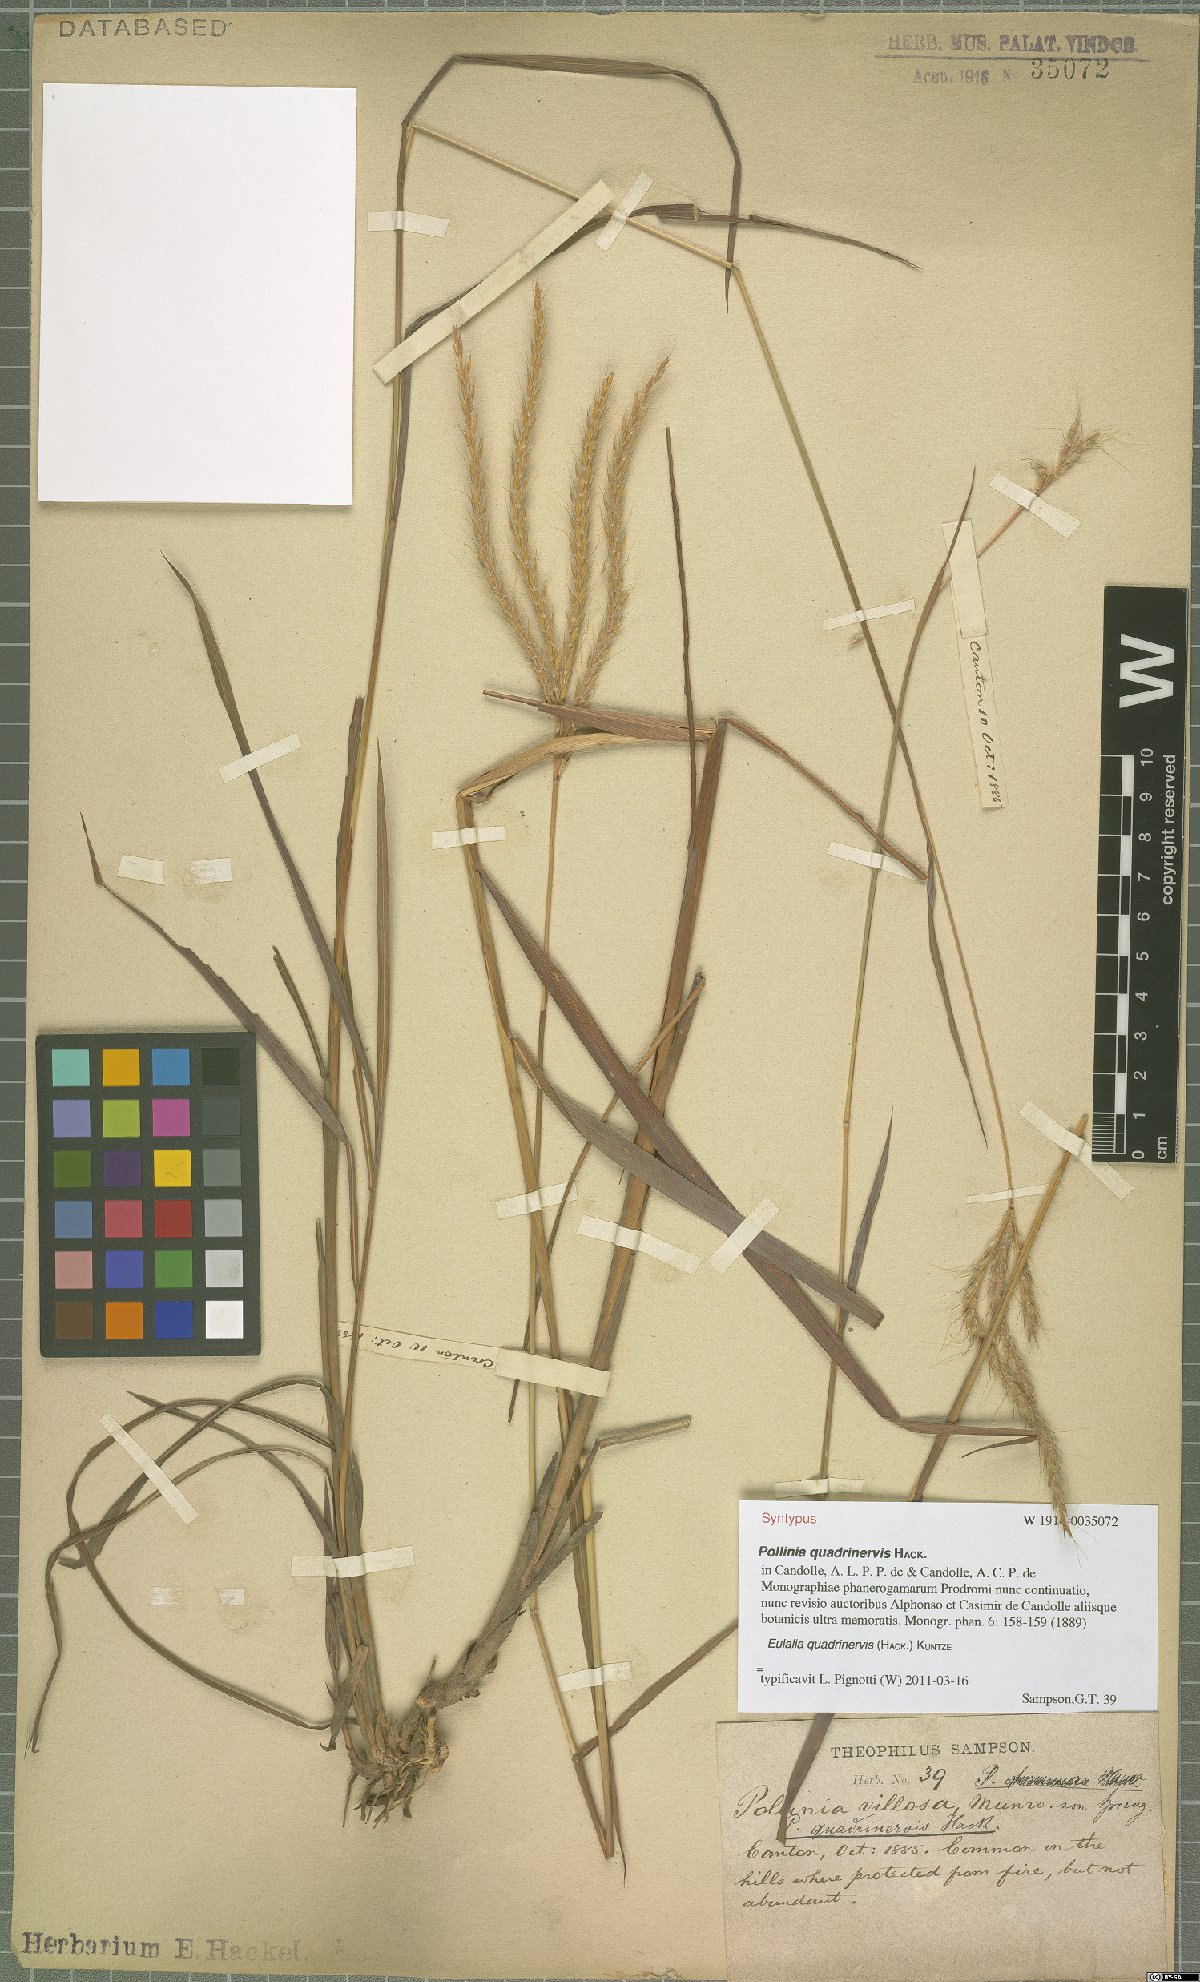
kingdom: Plantae
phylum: Tracheophyta
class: Liliopsida
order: Poales
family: Poaceae
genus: Pseudopogonatherum
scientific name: Pseudopogonatherum quadrinerve
